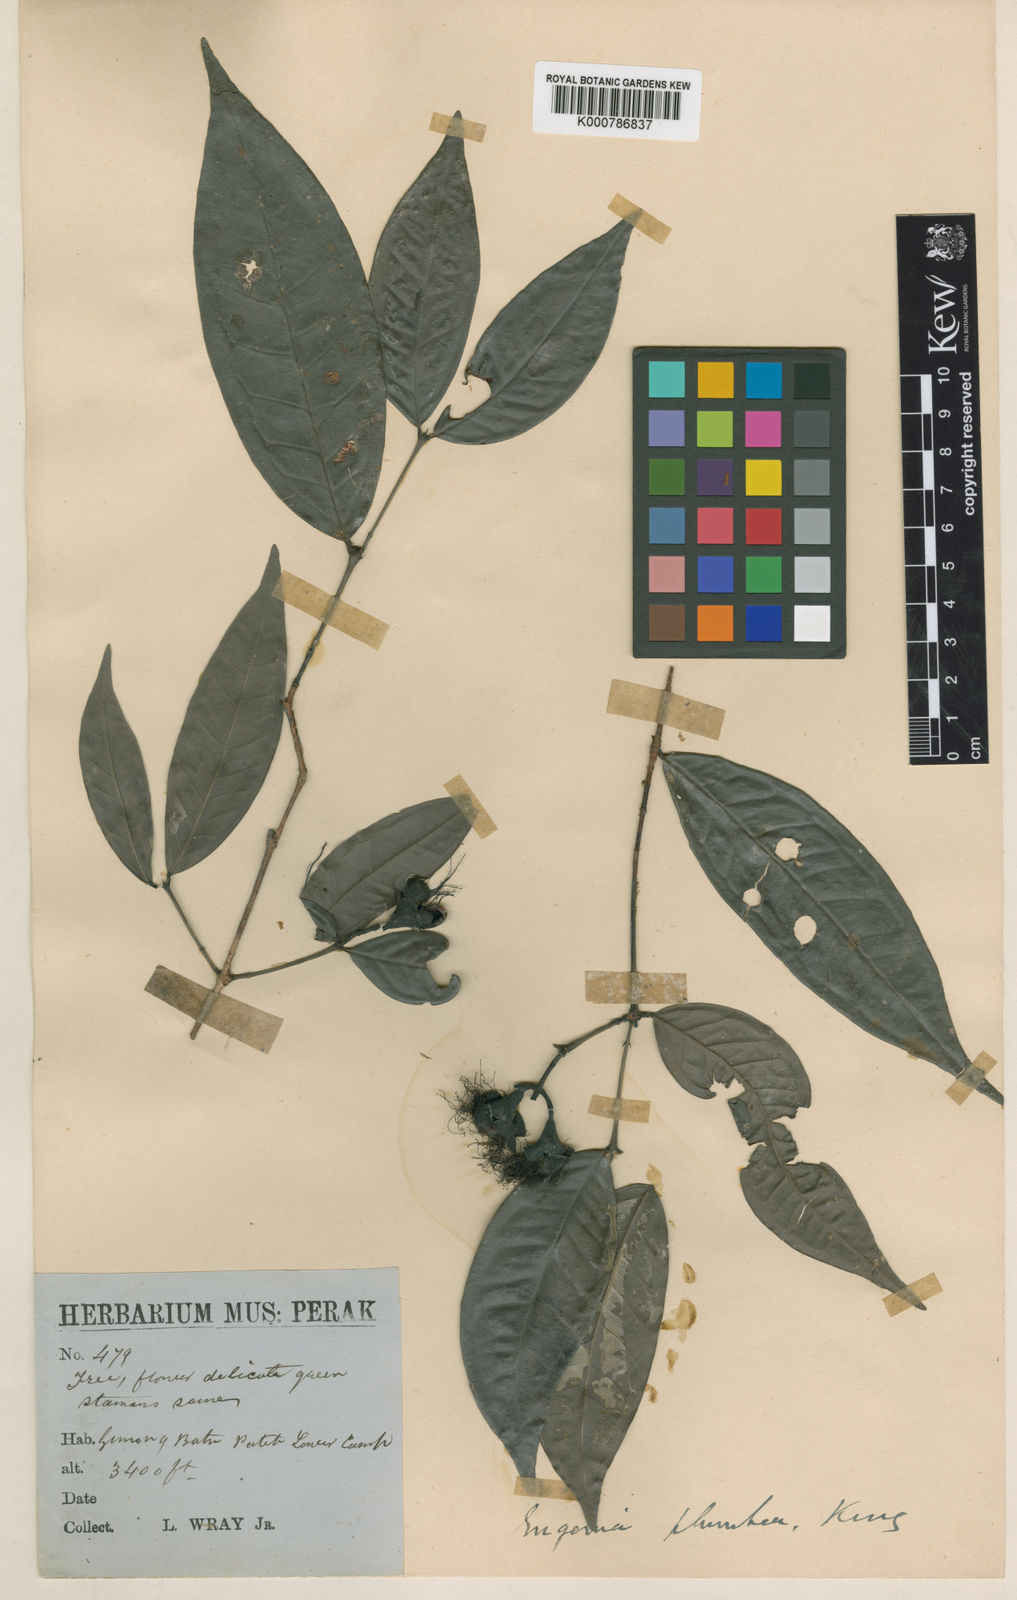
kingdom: Plantae
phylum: Tracheophyta
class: Magnoliopsida
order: Myrtales
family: Myrtaceae
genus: Syzygium
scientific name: Syzygium plumbeum
